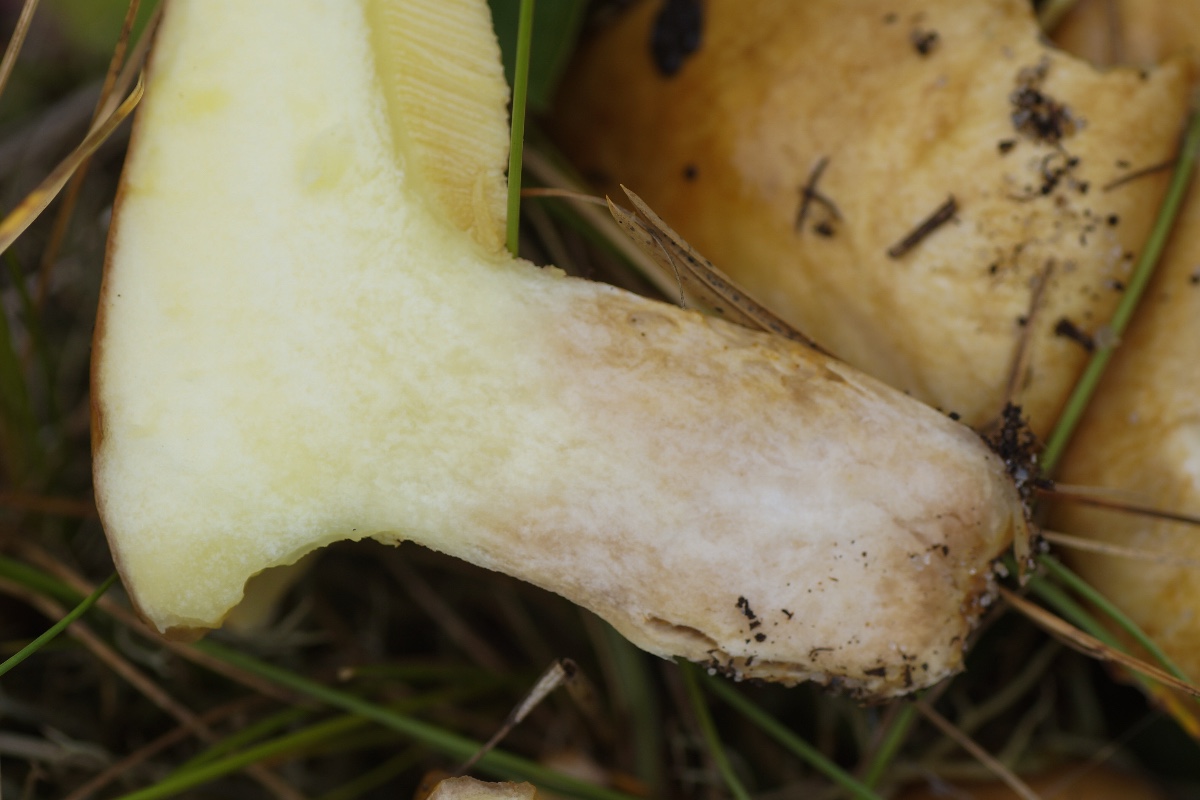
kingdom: Fungi
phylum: Basidiomycota
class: Agaricomycetes
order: Boletales
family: Suillaceae
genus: Suillus
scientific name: Suillus
